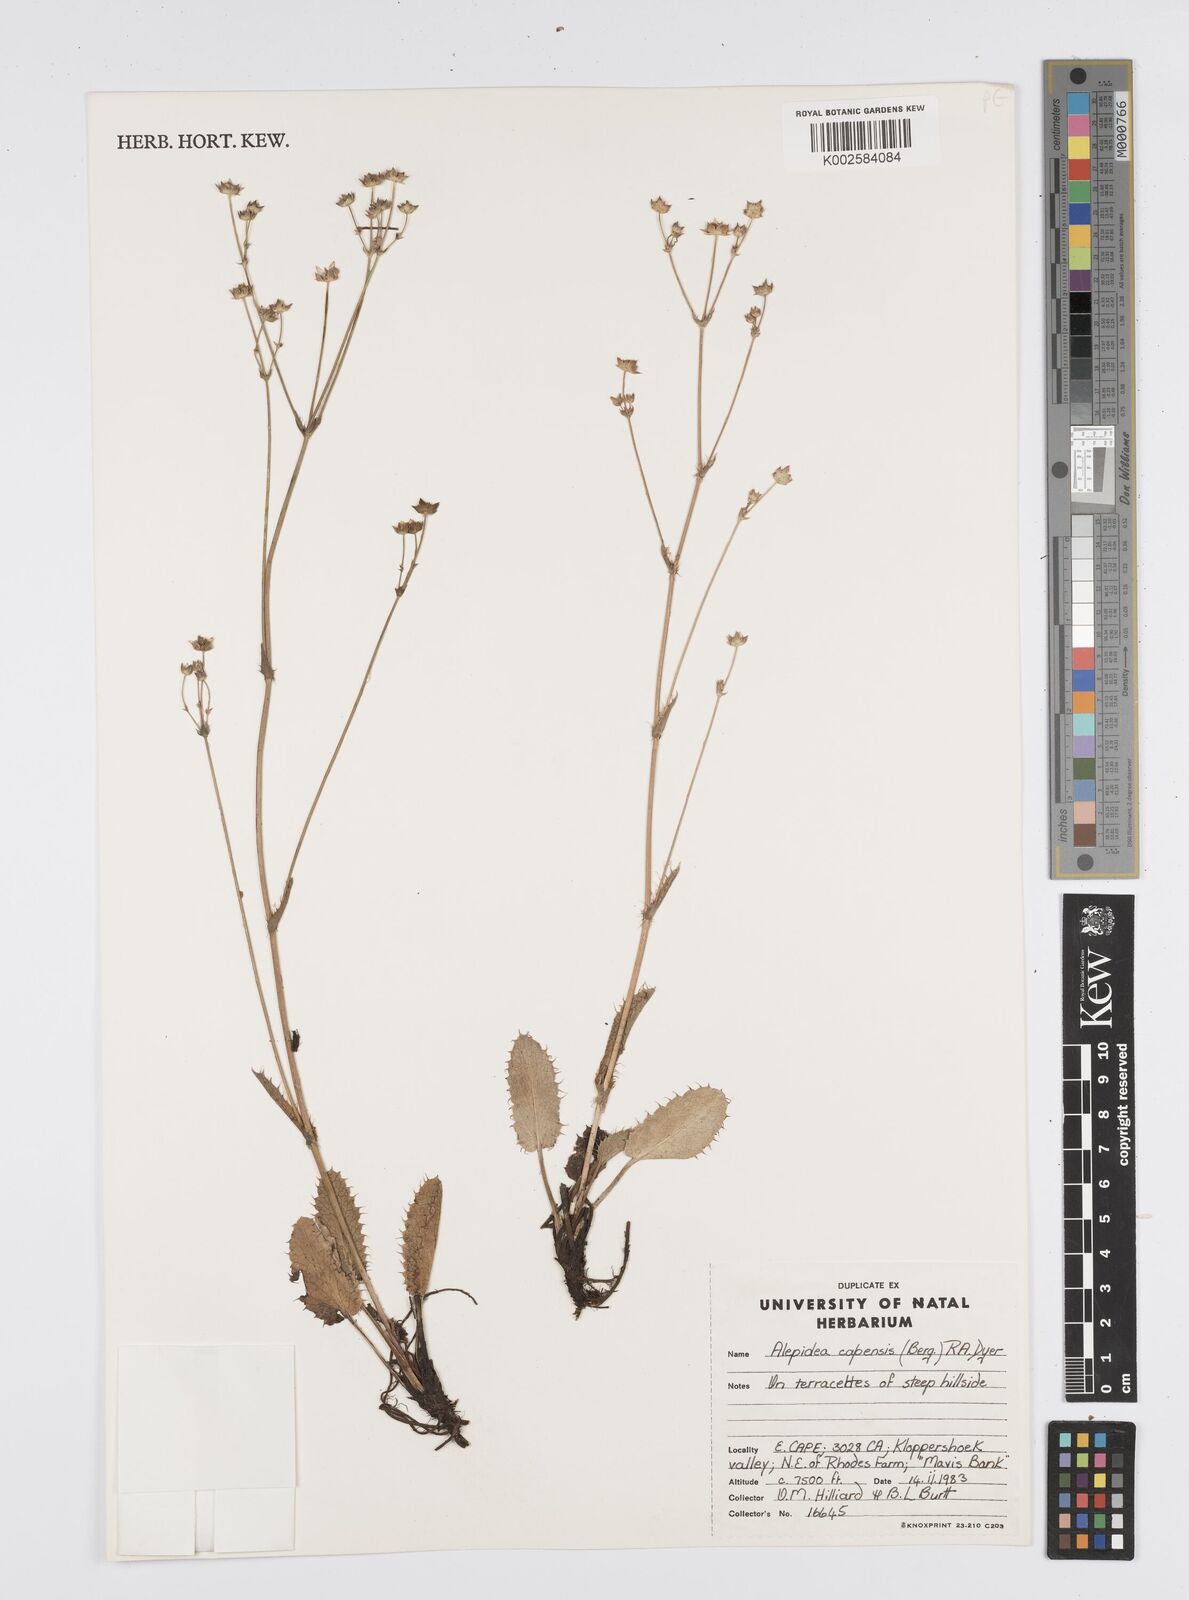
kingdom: Plantae
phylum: Tracheophyta
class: Magnoliopsida
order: Apiales
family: Apiaceae
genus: Alepidea
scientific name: Alepidea capensis
